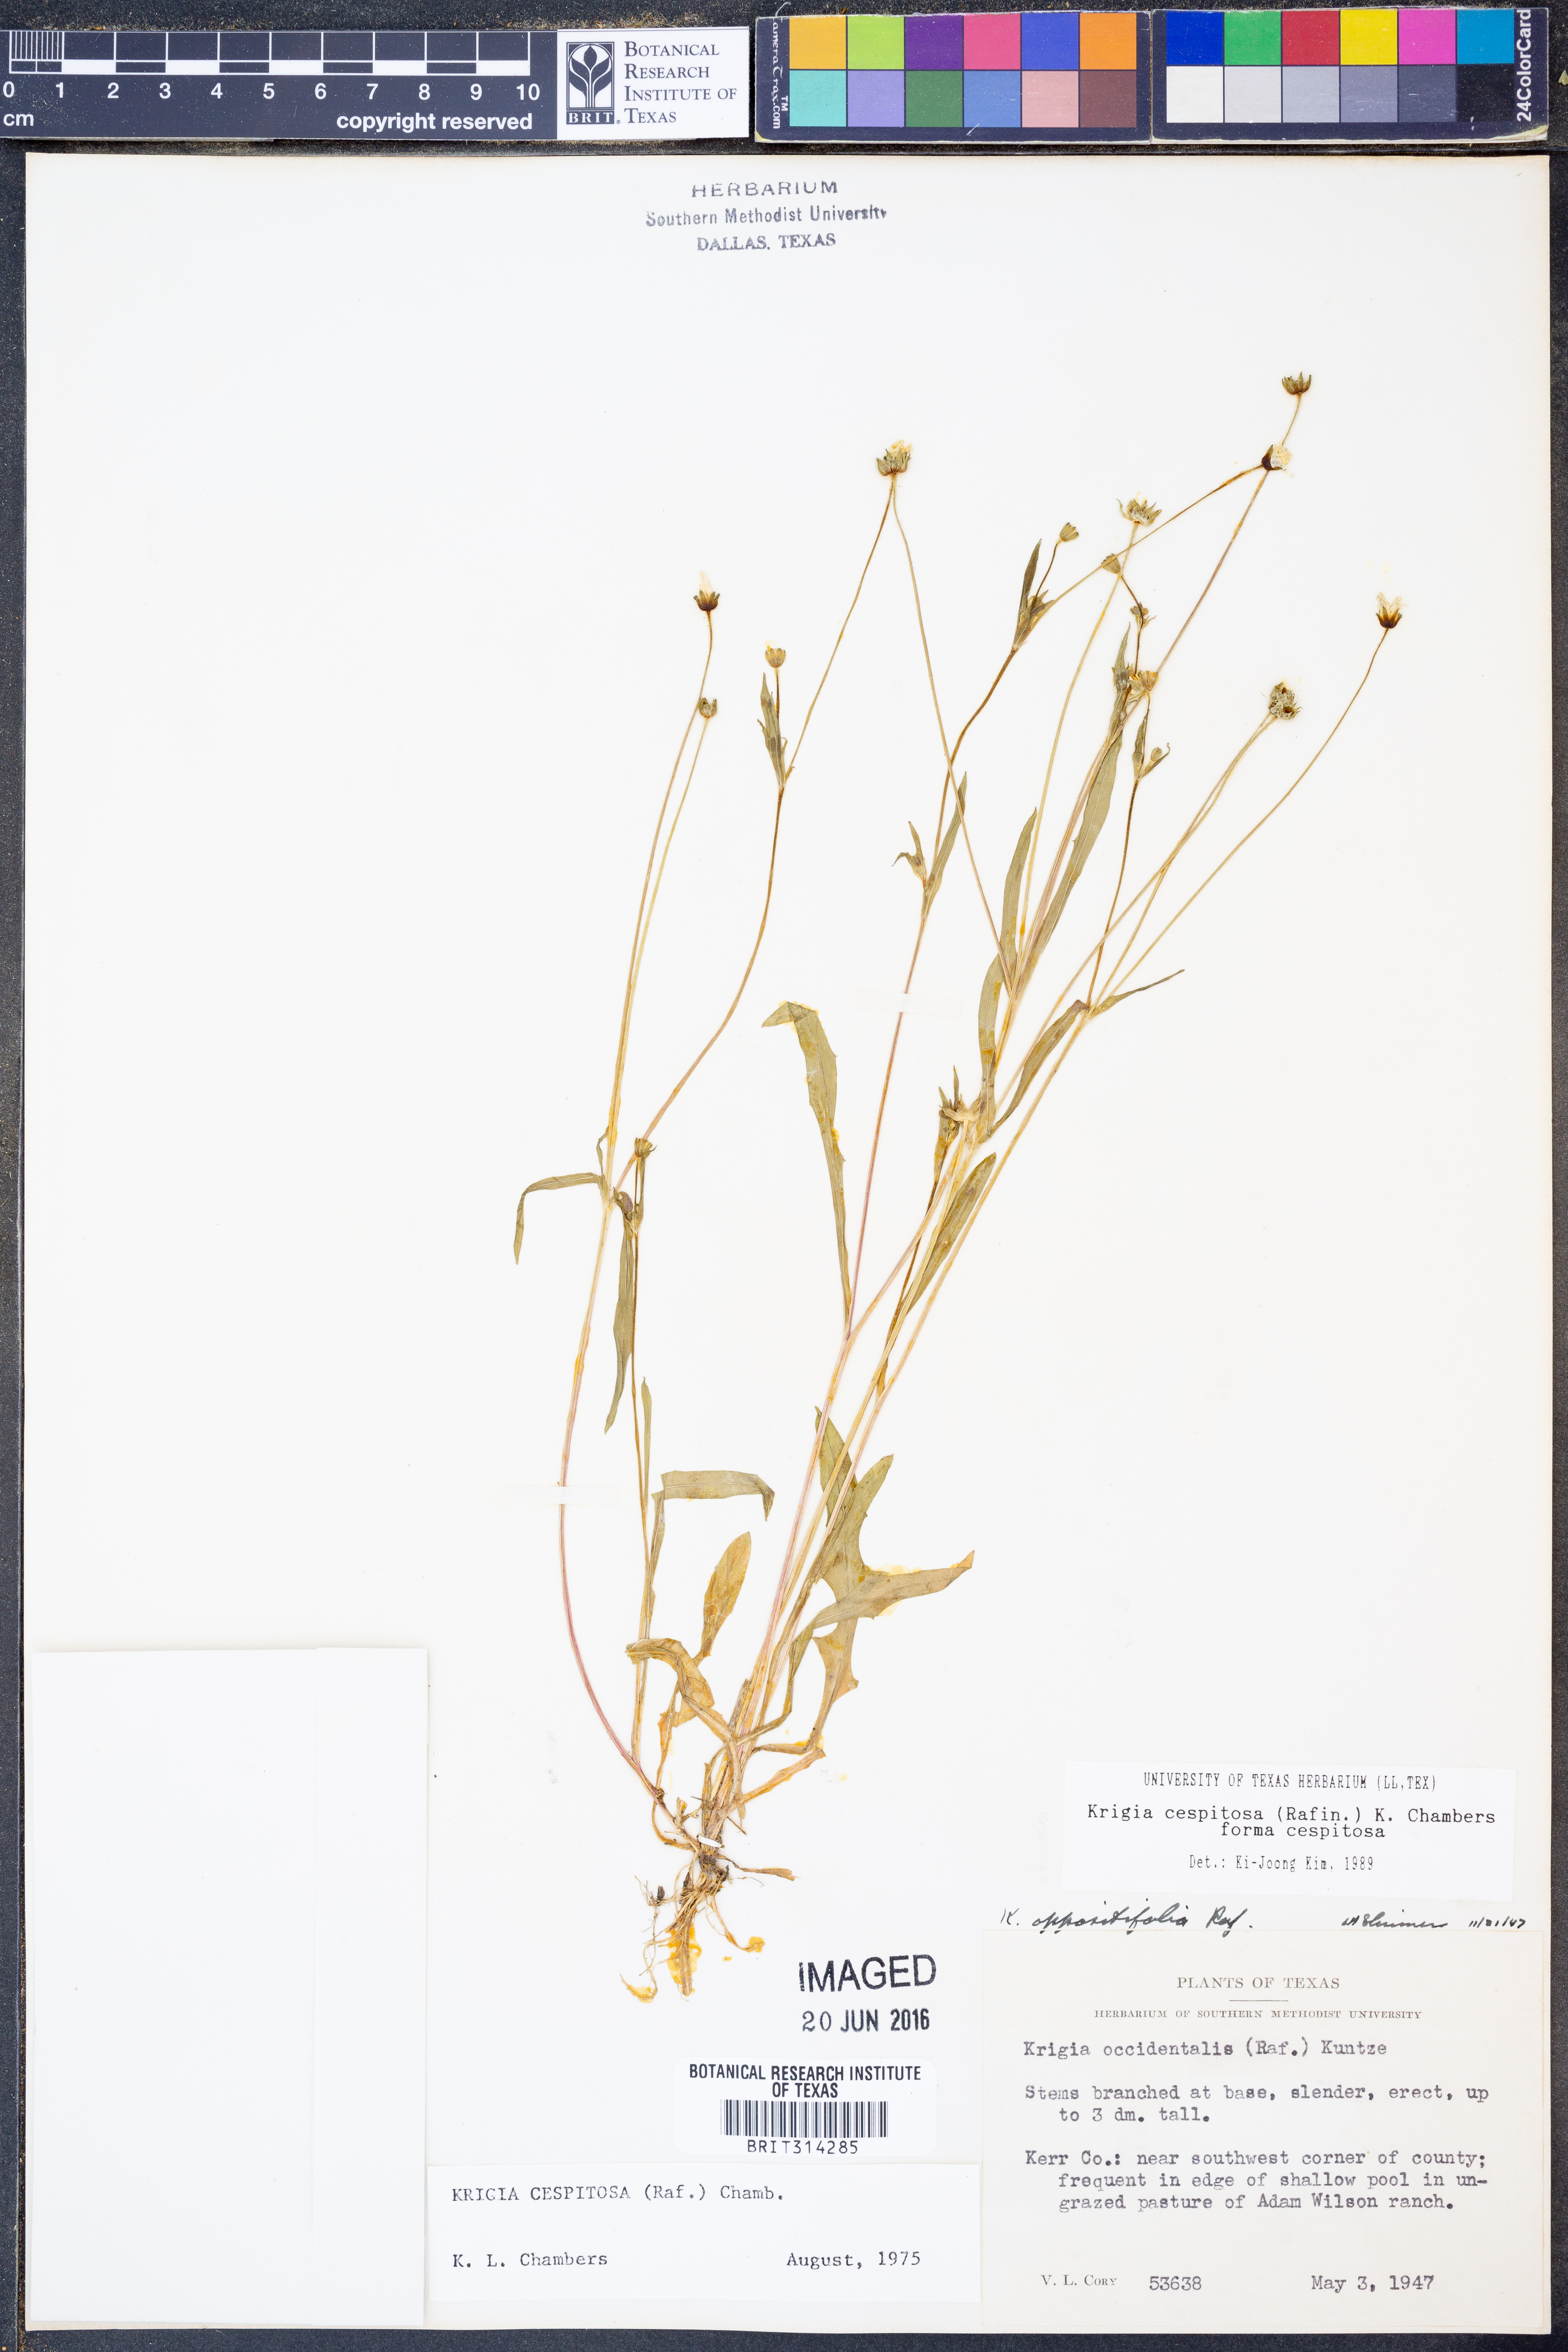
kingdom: Plantae
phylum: Tracheophyta
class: Magnoliopsida
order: Asterales
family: Asteraceae
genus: Krigia
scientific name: Krigia cespitosa
